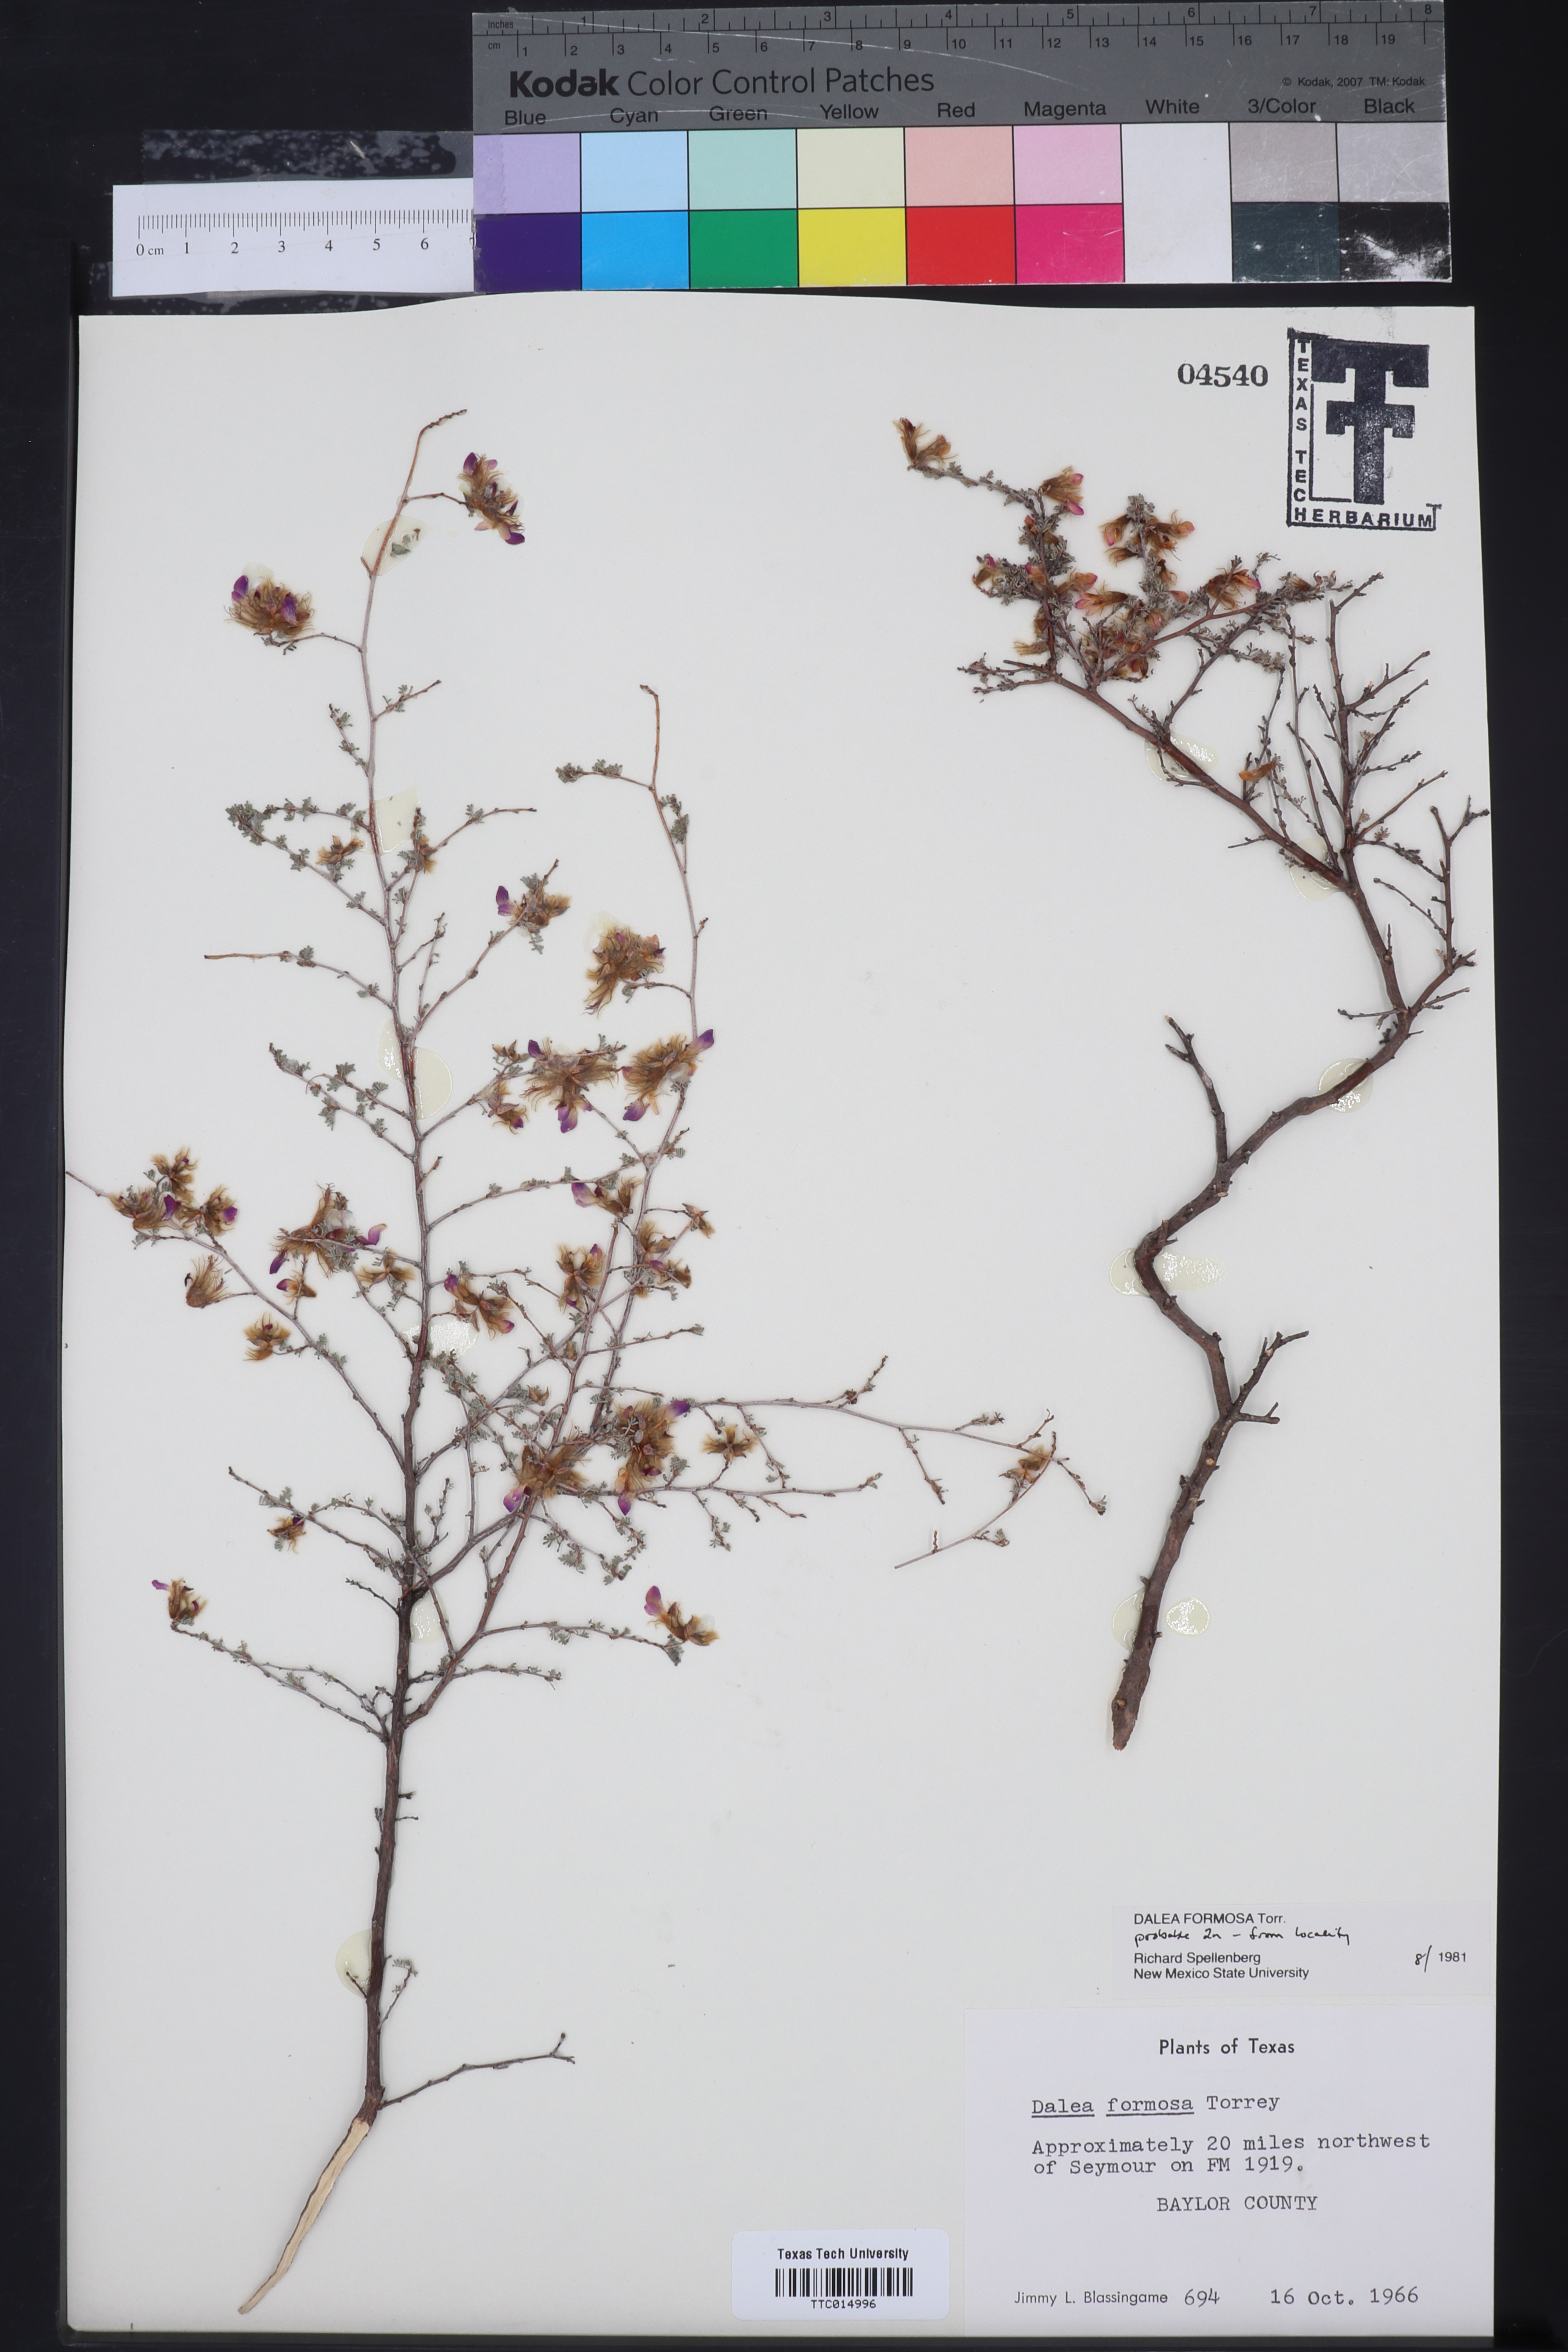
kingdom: Plantae
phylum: Tracheophyta
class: Magnoliopsida
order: Fabales
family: Fabaceae
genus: Dalea
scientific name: Dalea formosa
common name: Feather-plume dalea
